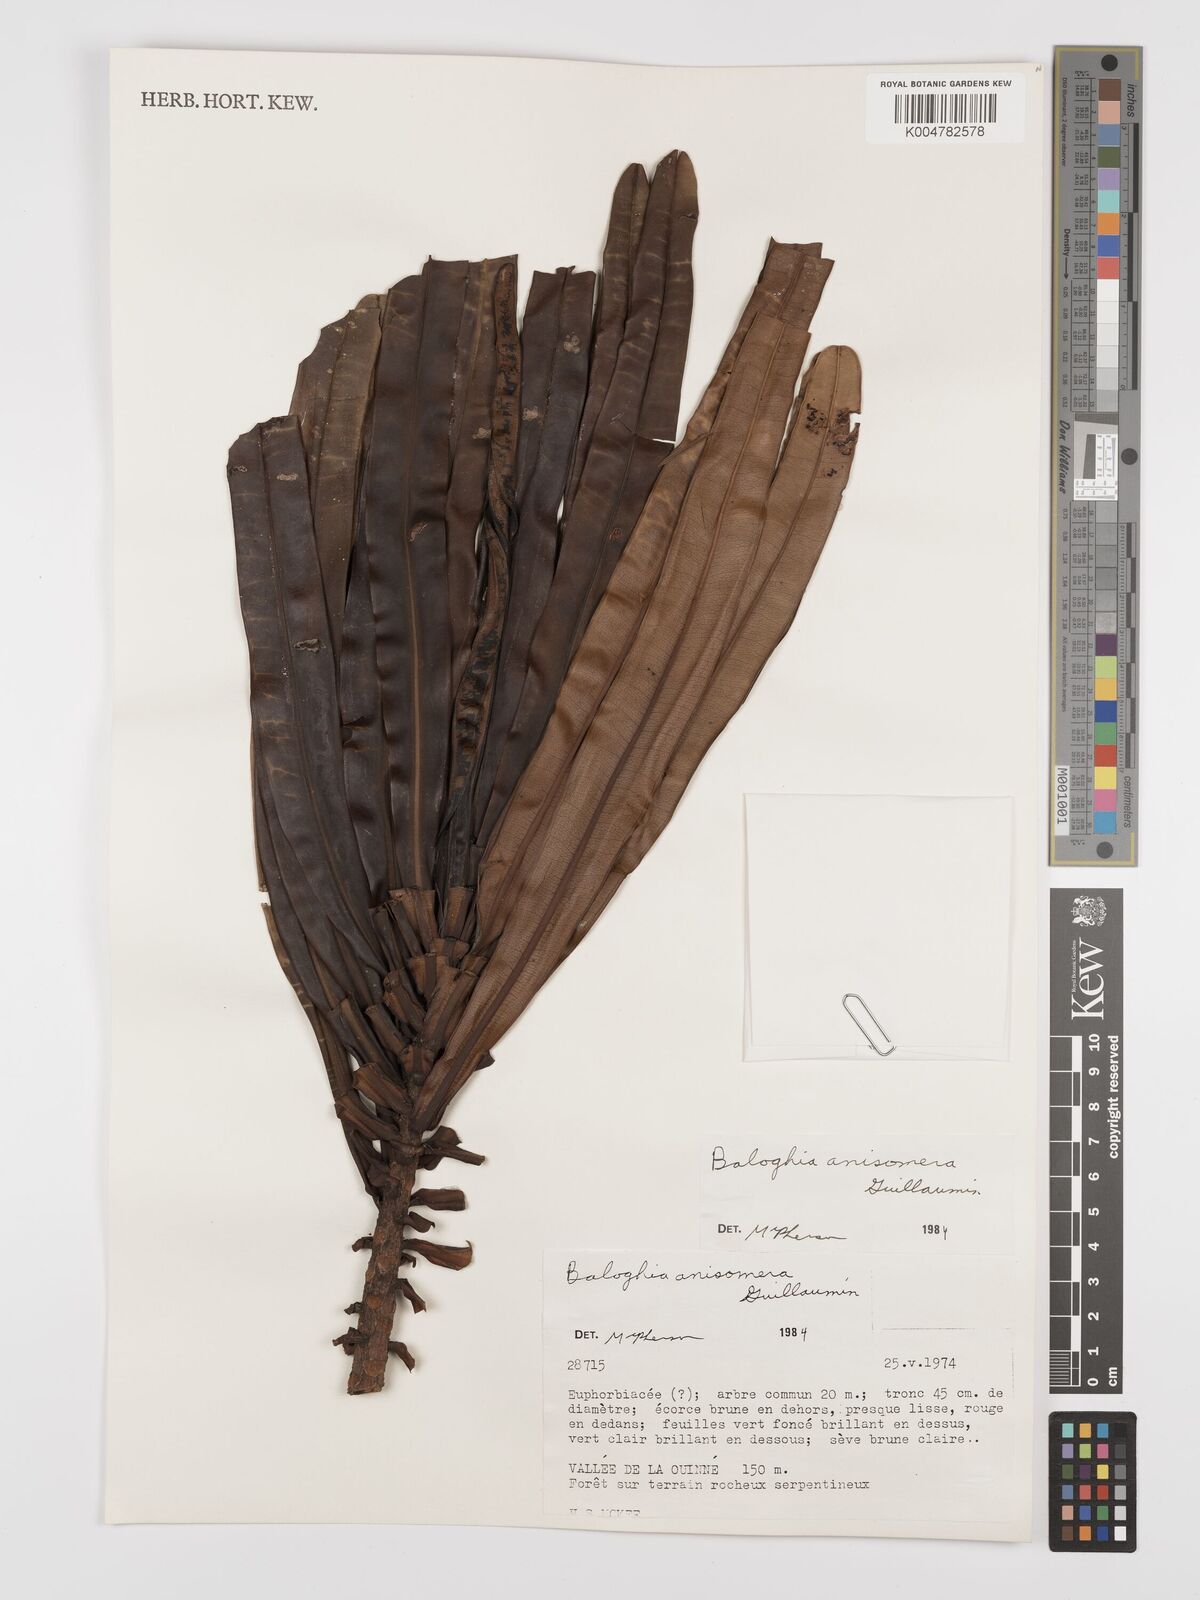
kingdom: Plantae
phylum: Tracheophyta
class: Magnoliopsida
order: Malpighiales
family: Euphorbiaceae
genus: Baloghia
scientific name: Baloghia anisomera
